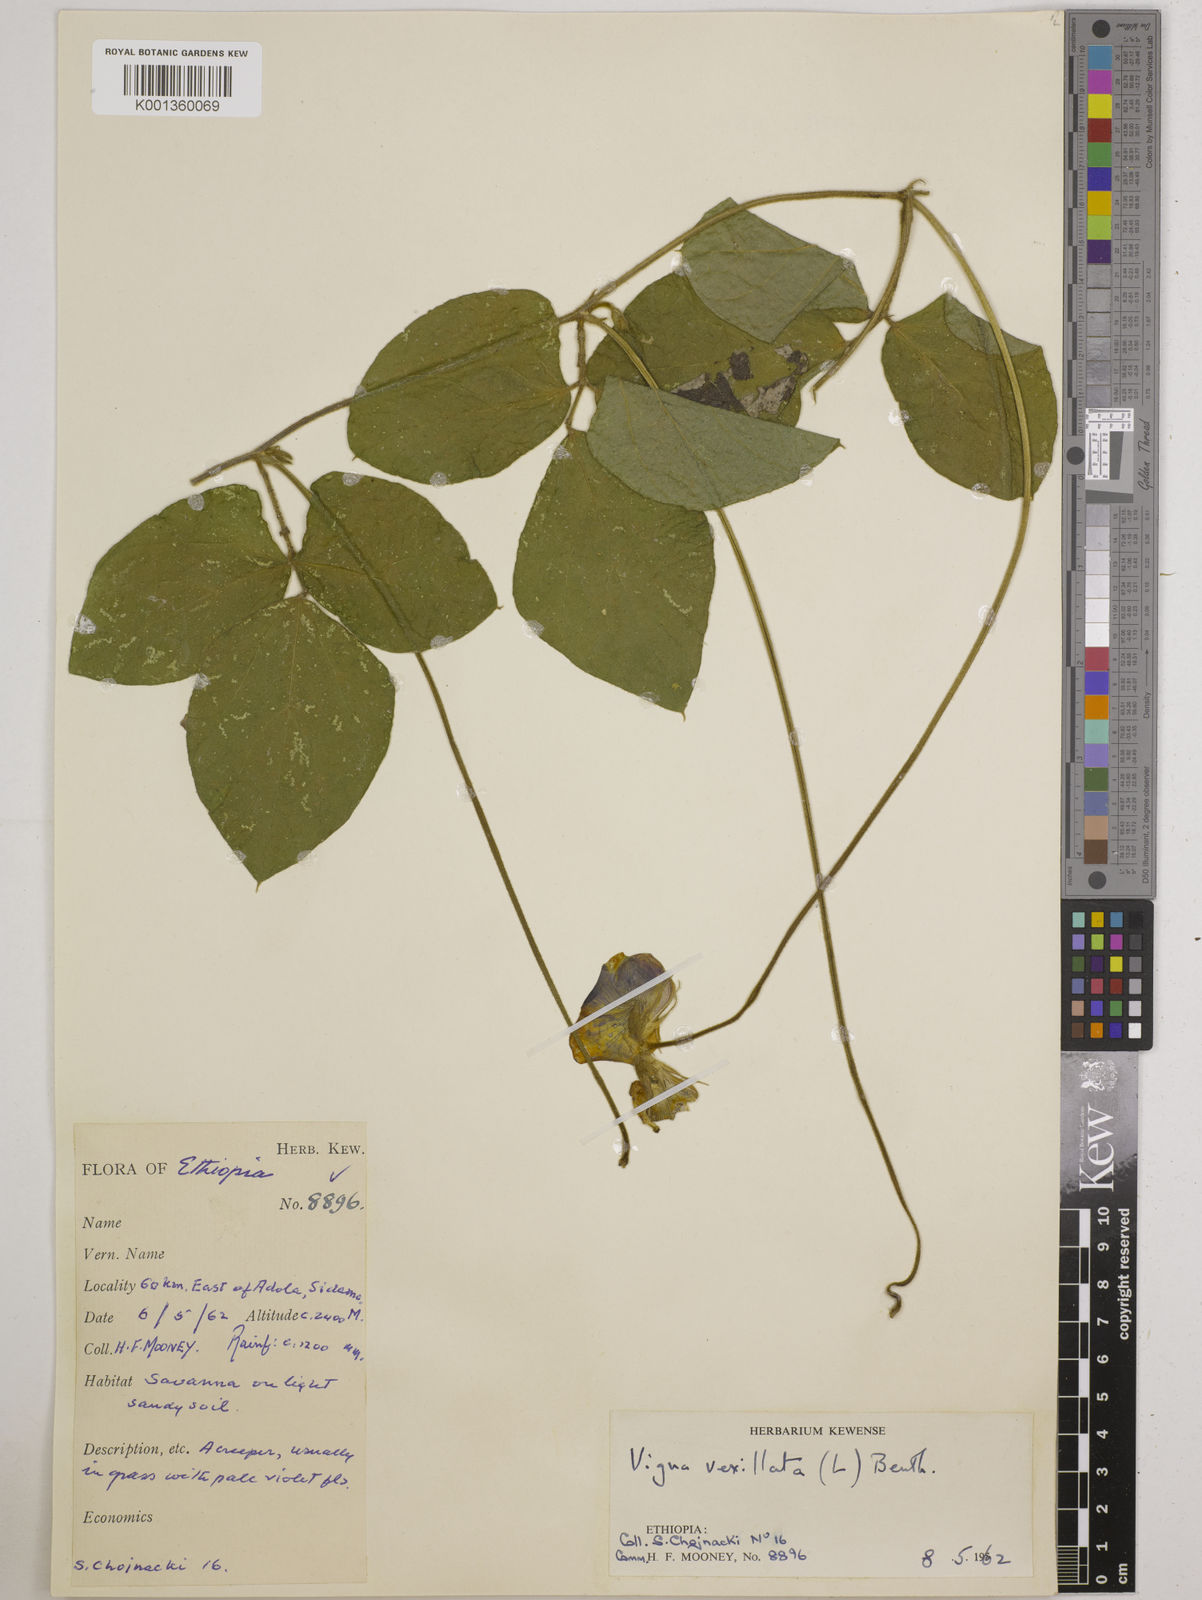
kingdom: Plantae
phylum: Tracheophyta
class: Magnoliopsida
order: Fabales
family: Fabaceae
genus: Vigna
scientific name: Vigna vexillata
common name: Zombi pea
